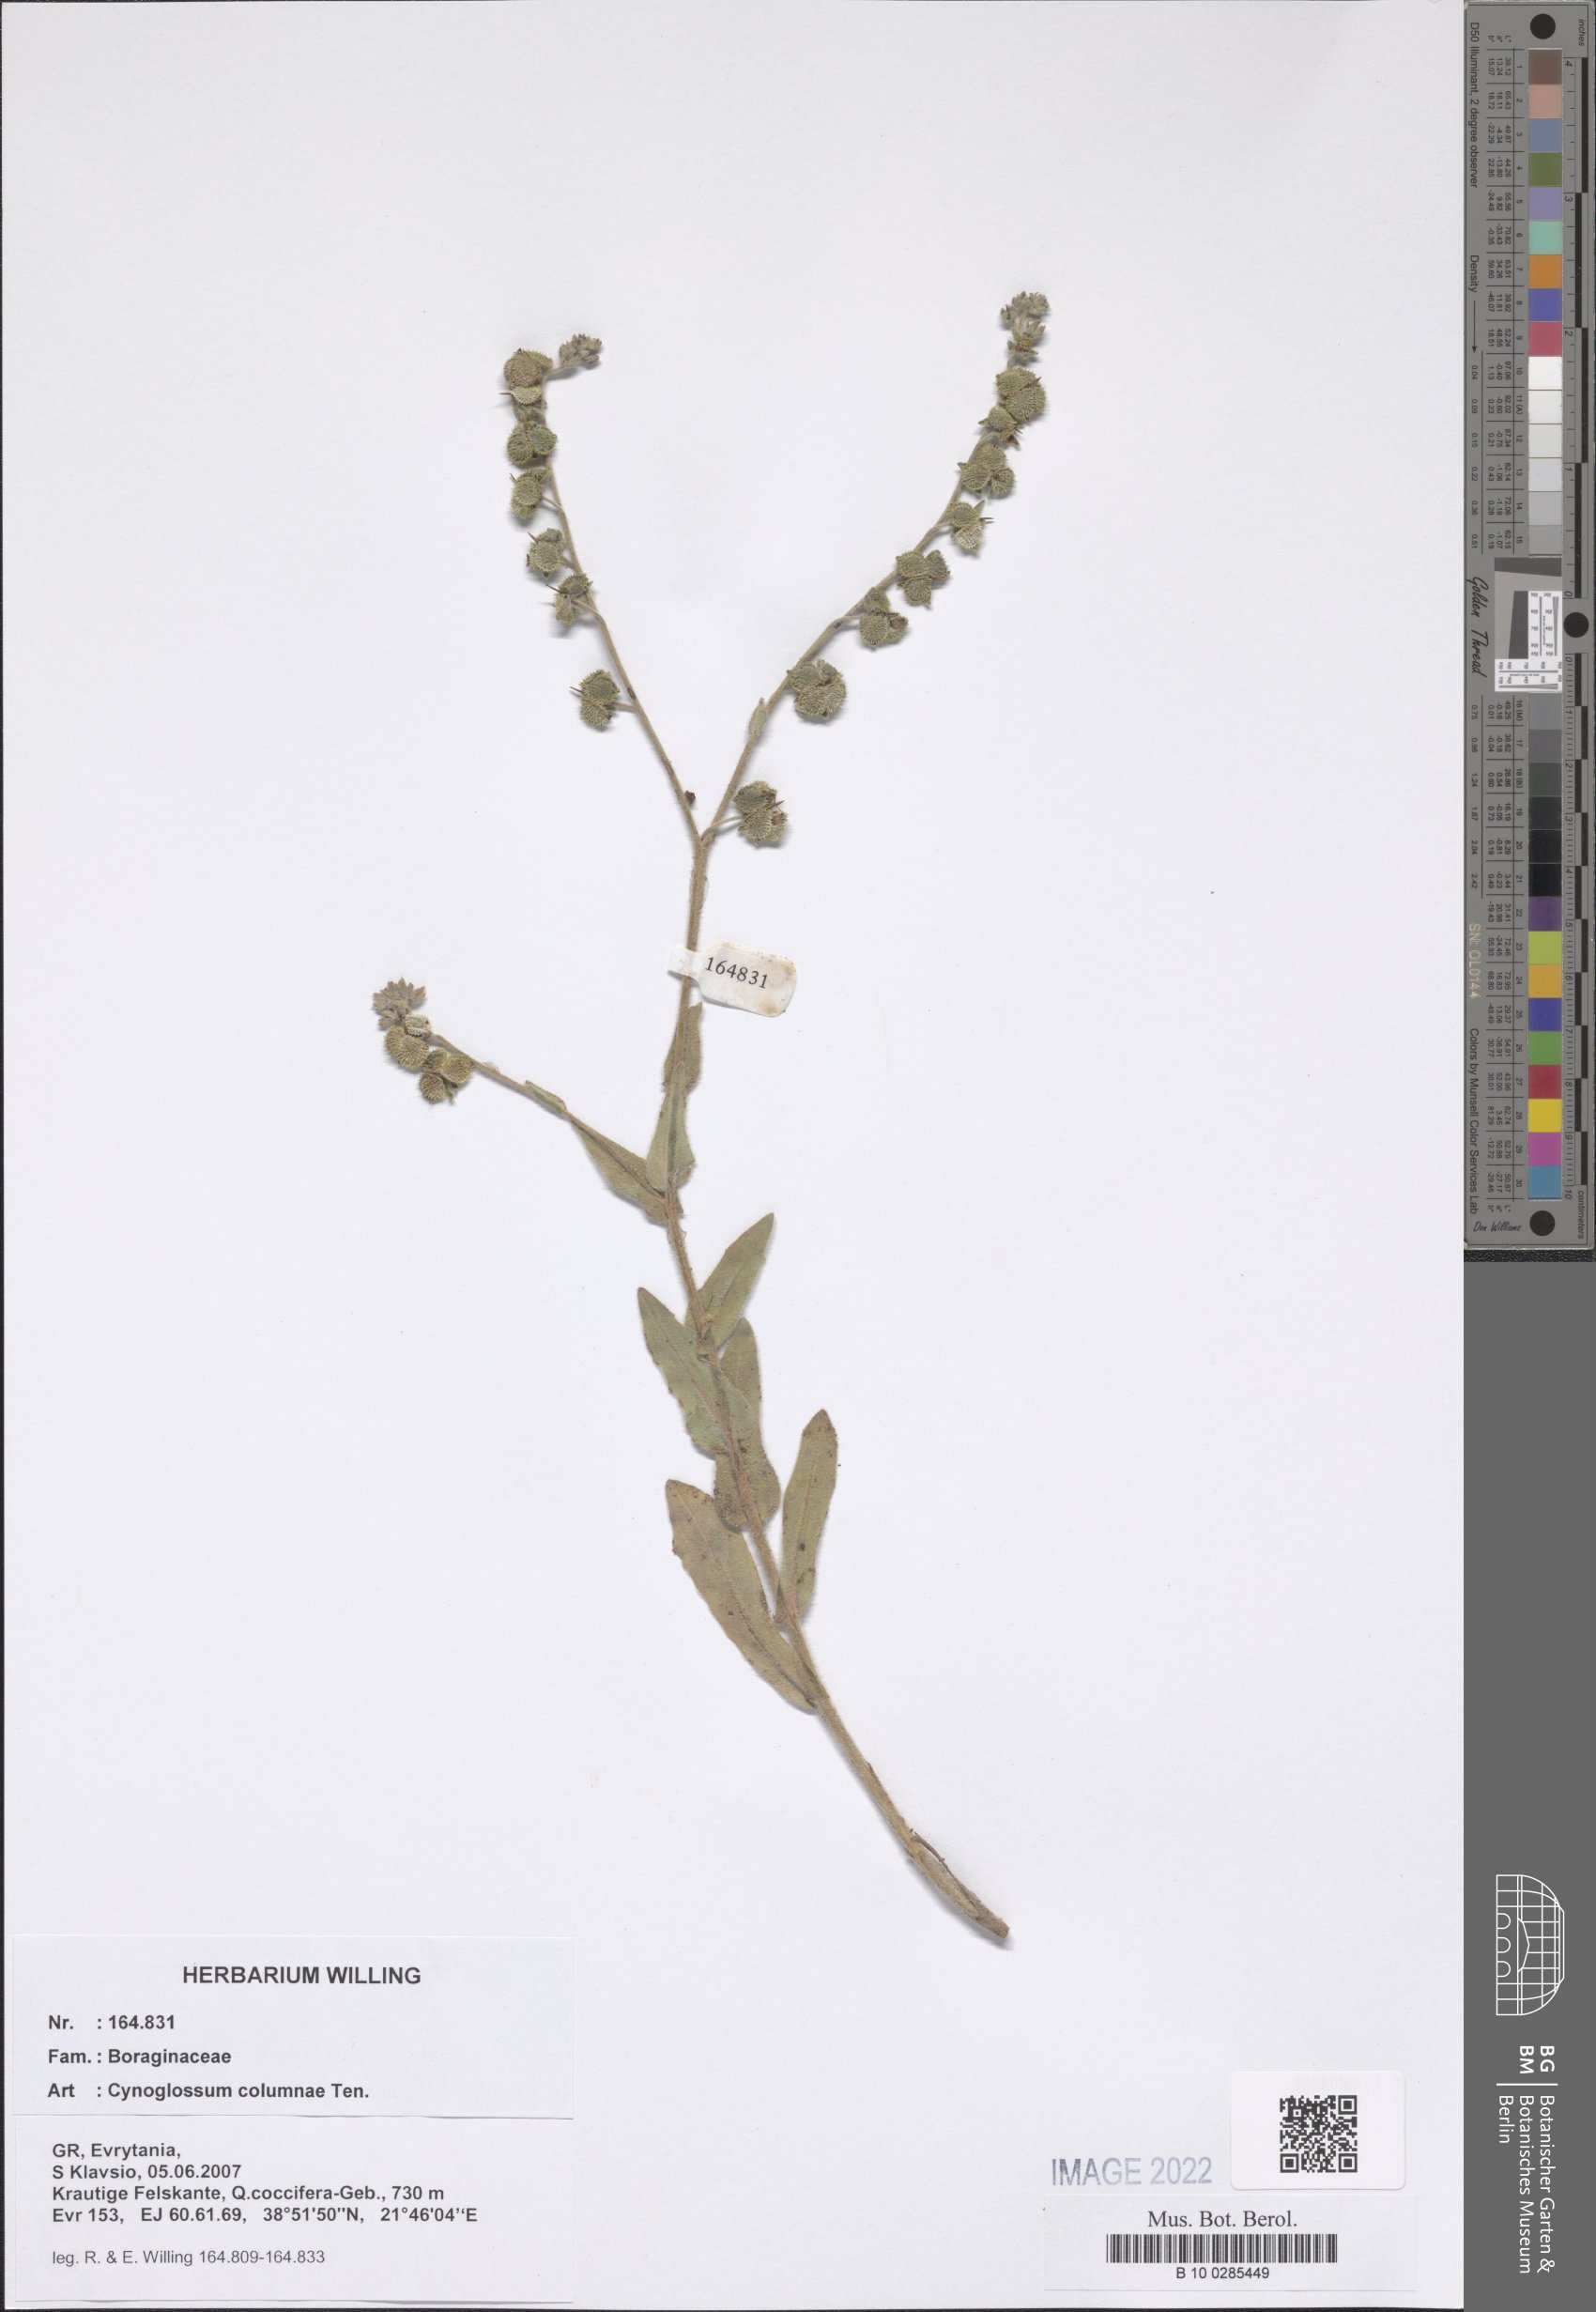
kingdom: Plantae
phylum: Tracheophyta
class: Magnoliopsida
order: Boraginales
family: Boraginaceae
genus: Rindera
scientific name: Rindera columnae
